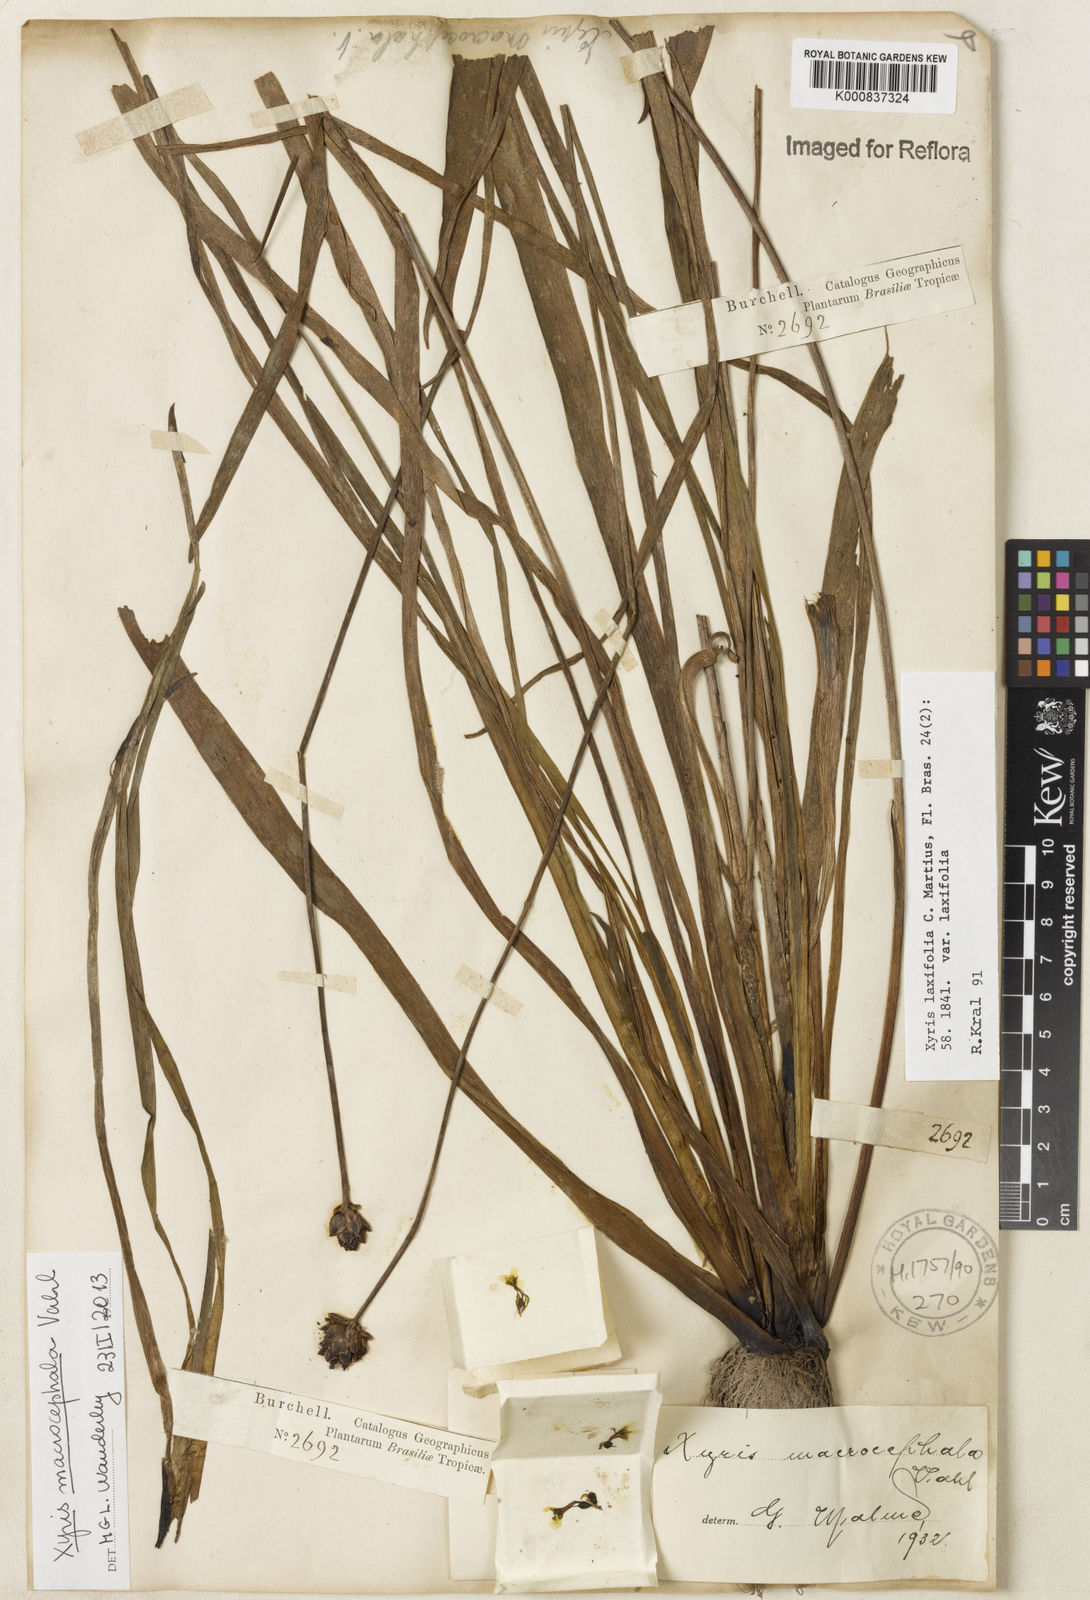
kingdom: Plantae
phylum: Tracheophyta
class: Liliopsida
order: Poales
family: Xyridaceae
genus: Xyris
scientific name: Xyris jupicai
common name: Richard's yelloweyed grass
